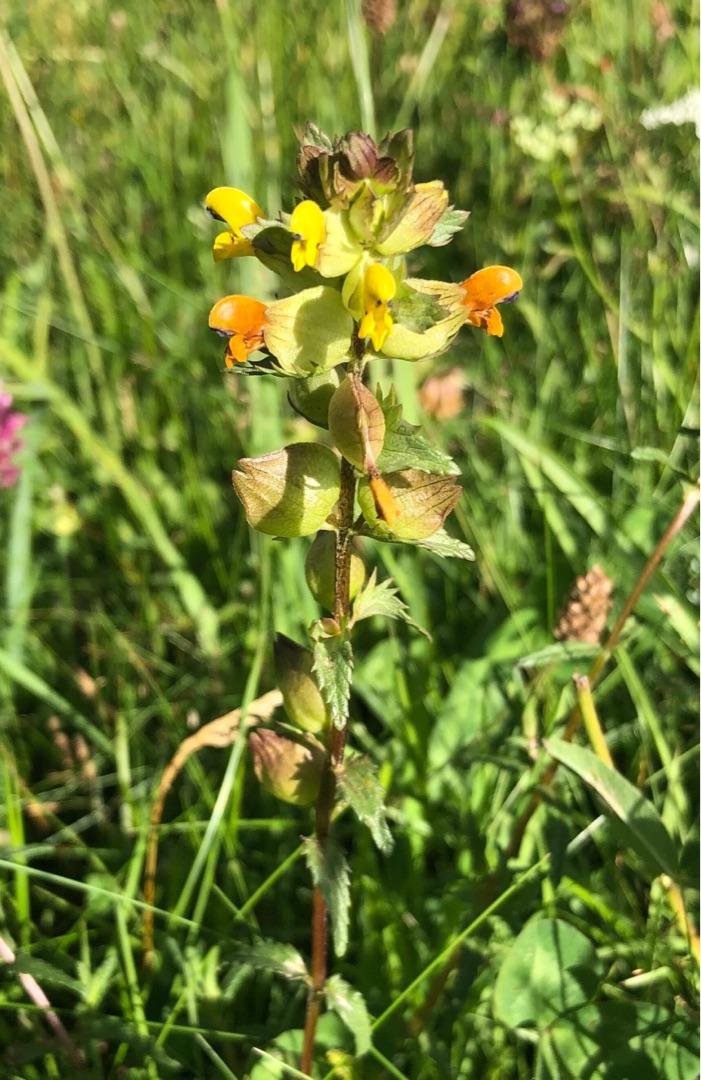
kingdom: Plantae
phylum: Tracheophyta
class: Magnoliopsida
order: Lamiales
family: Orobanchaceae
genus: Rhinanthus
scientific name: Rhinanthus minor
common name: Liden skjaller
